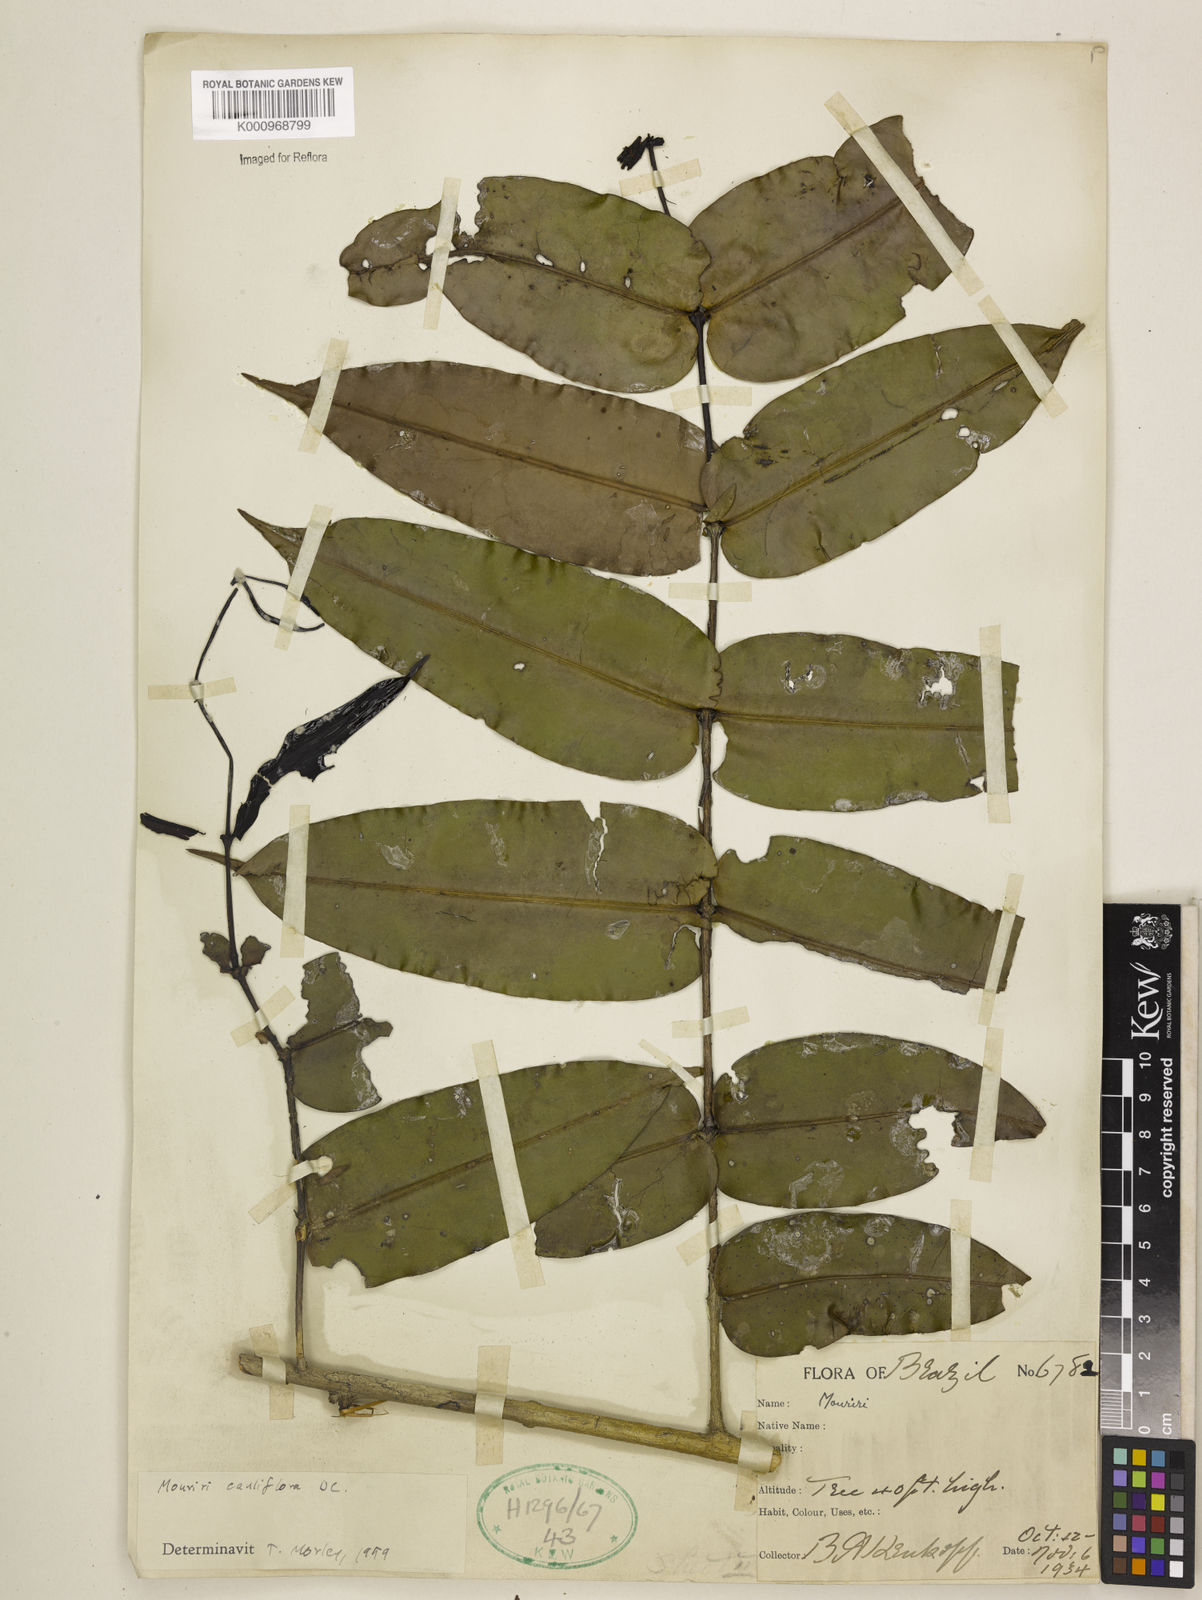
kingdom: Plantae
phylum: Tracheophyta
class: Magnoliopsida
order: Myrtales
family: Melastomataceae
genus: Mouriri
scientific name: Mouriri cauliflora
